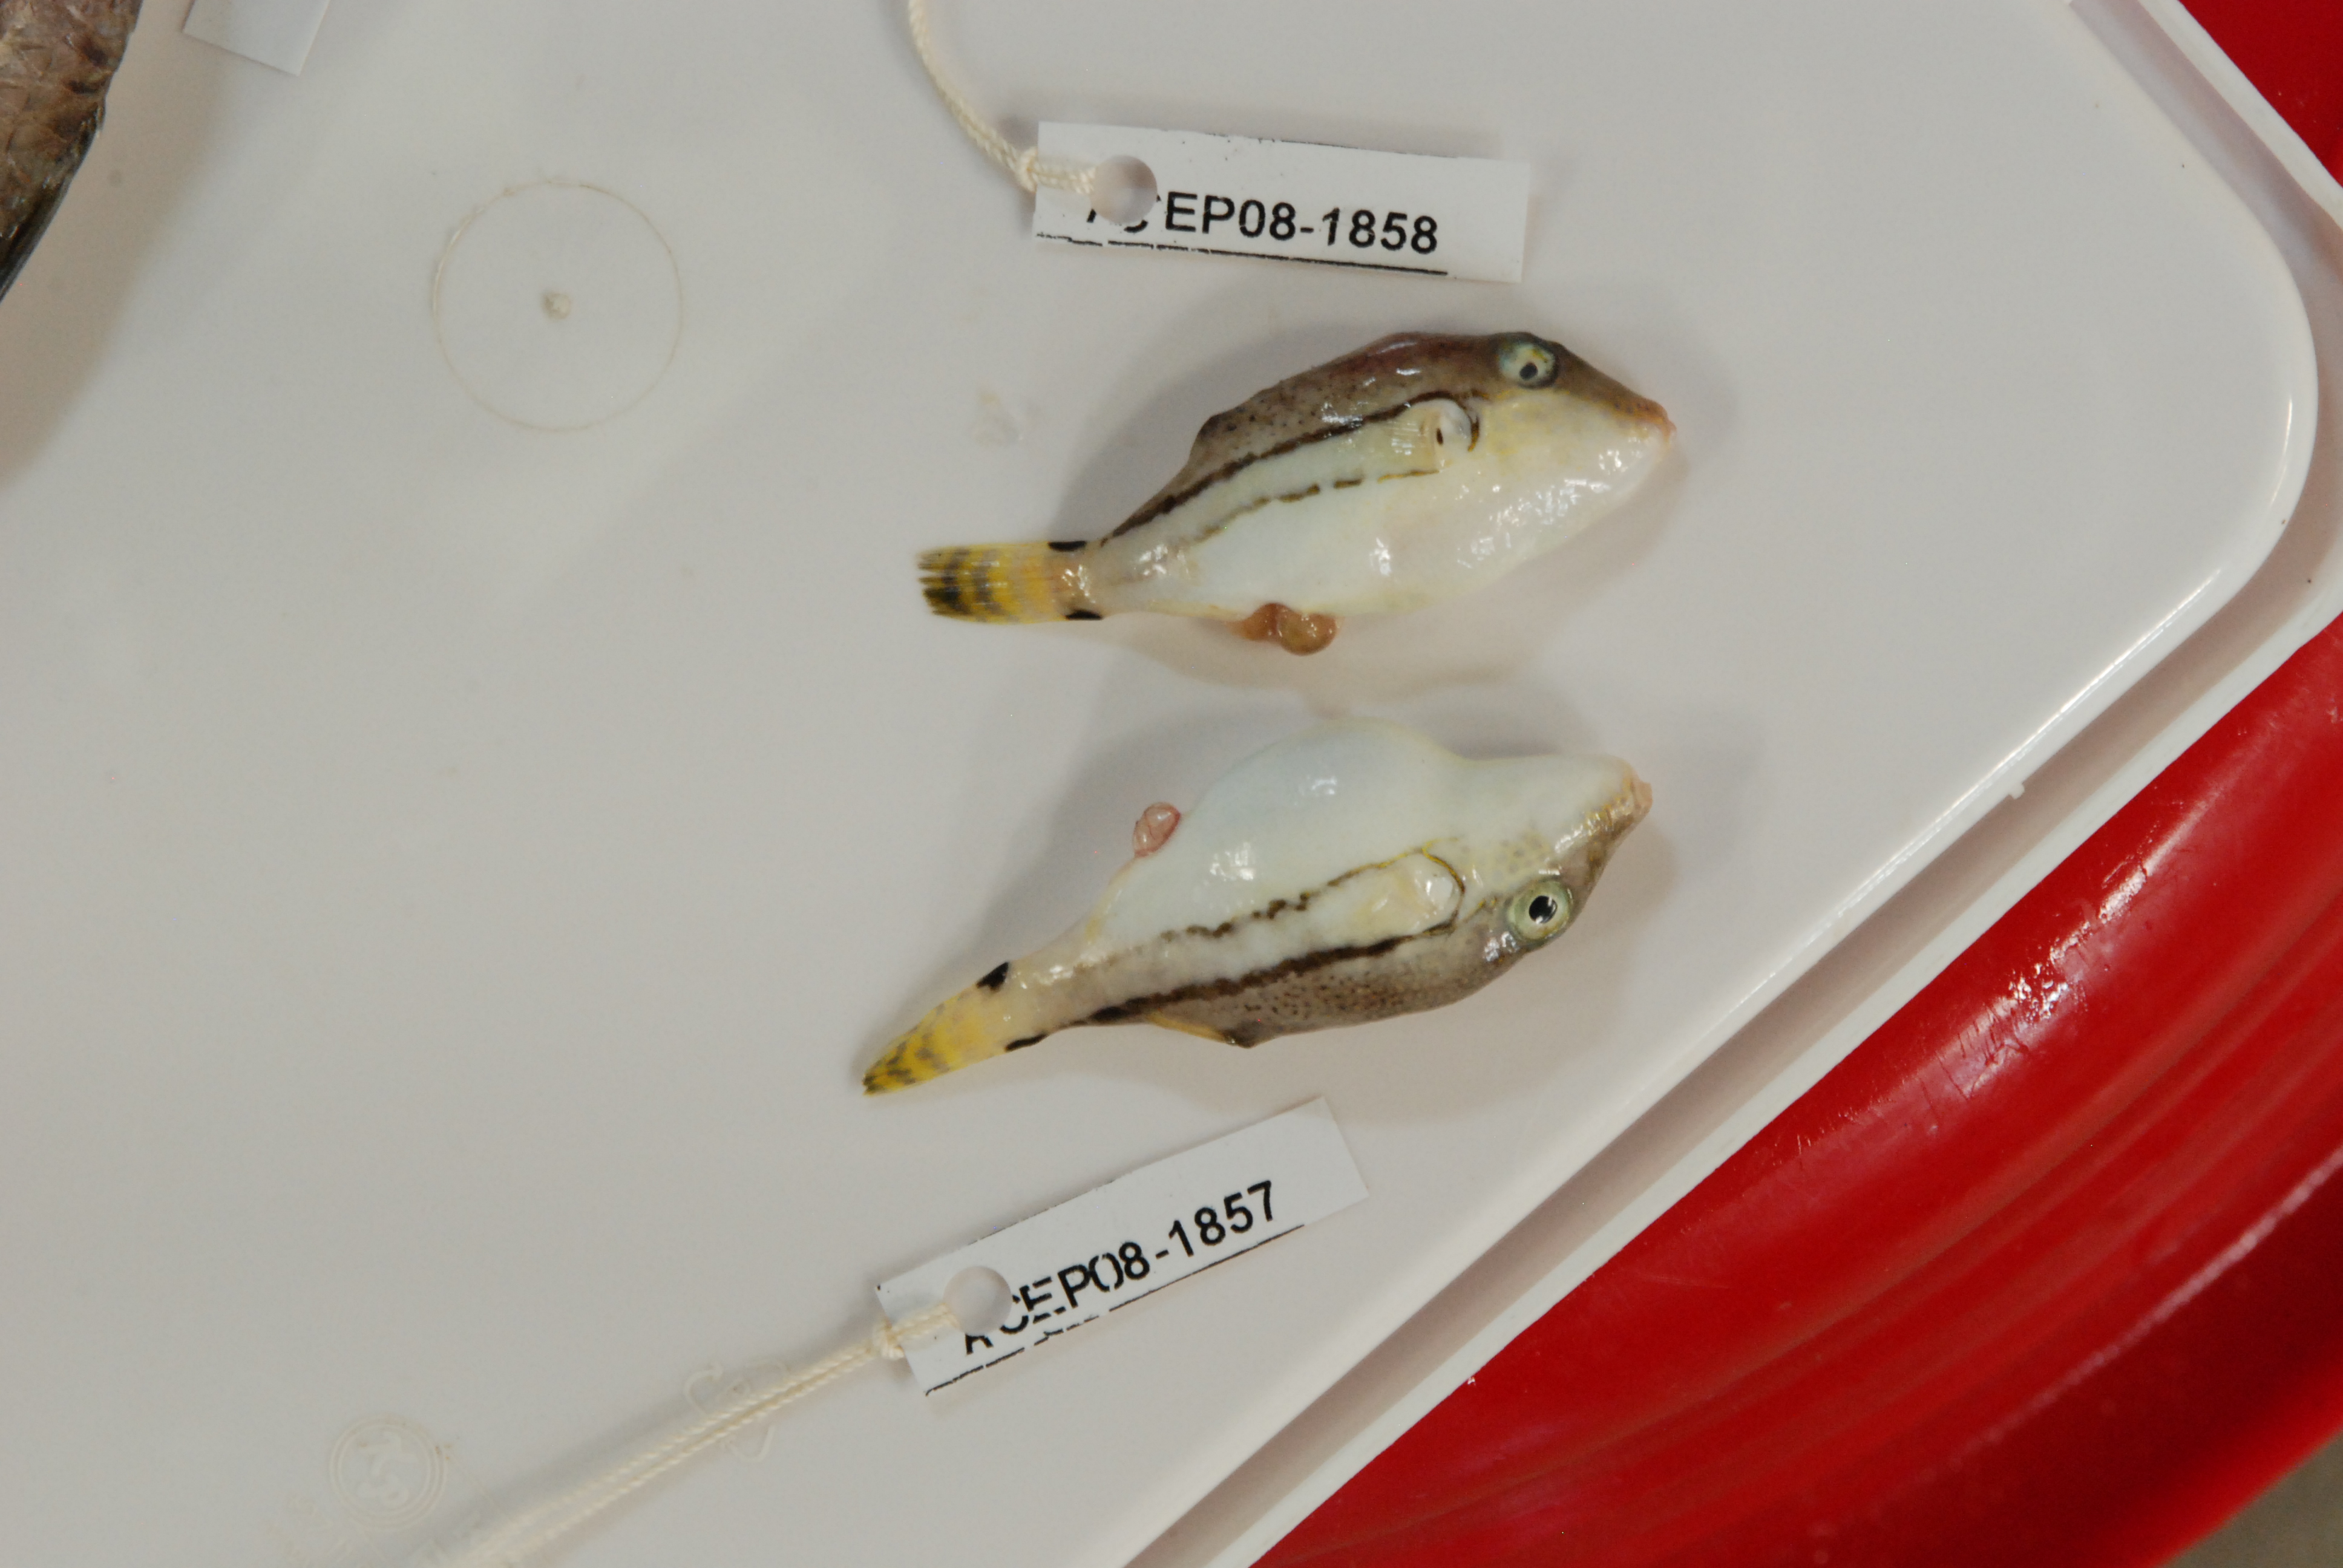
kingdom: Animalia
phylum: Chordata
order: Tetraodontiformes
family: Tetraodontidae
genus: Canthigaster
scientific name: Canthigaster rivulata
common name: Brown-lined puffer
